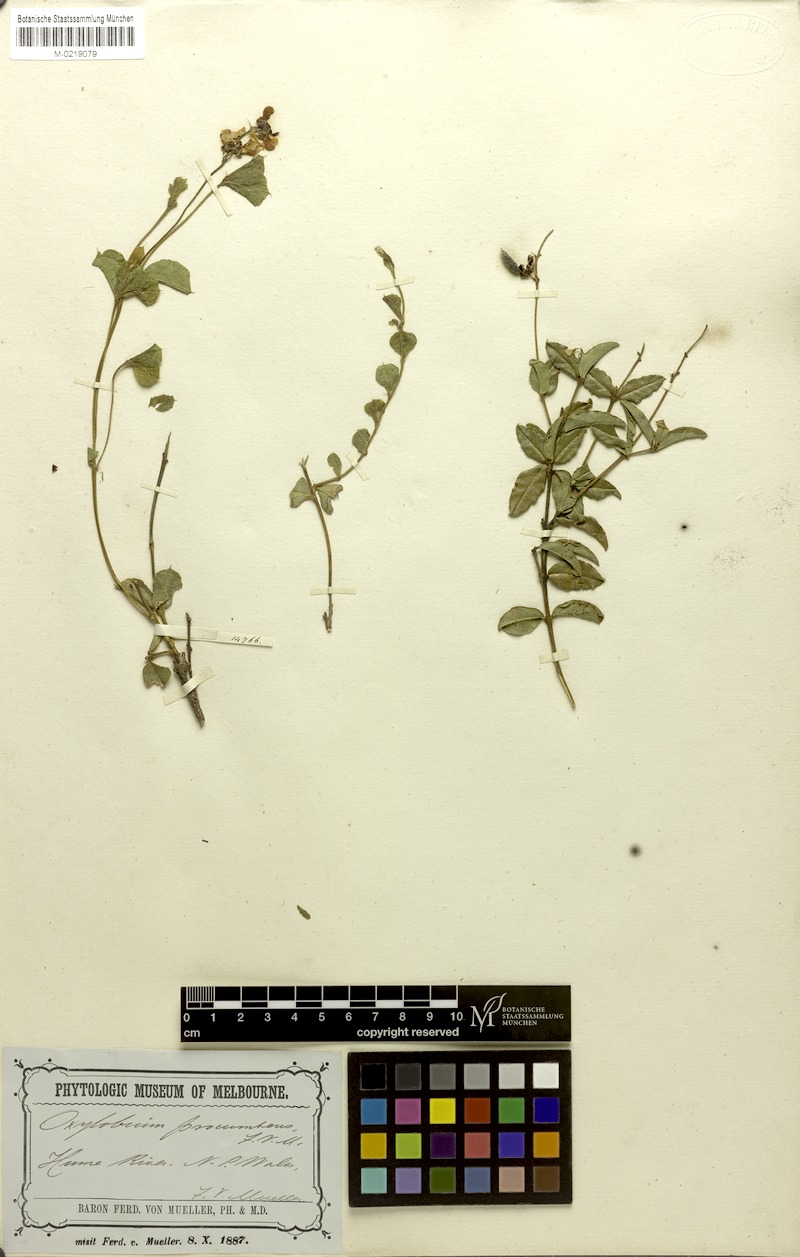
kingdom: Plantae
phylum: Tracheophyta
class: Magnoliopsida
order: Fabales
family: Fabaceae
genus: Podolobium
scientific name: Podolobium procumbens
